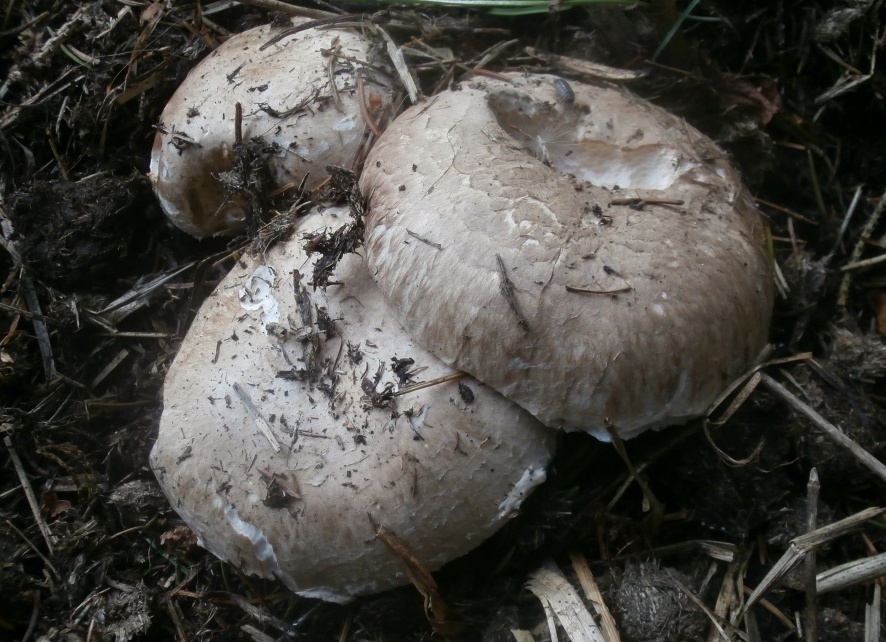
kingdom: Fungi
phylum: Basidiomycota
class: Agaricomycetes
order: Agaricales
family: Agaricaceae
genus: Agaricus
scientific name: Agaricus bisporus
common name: have-champignon
